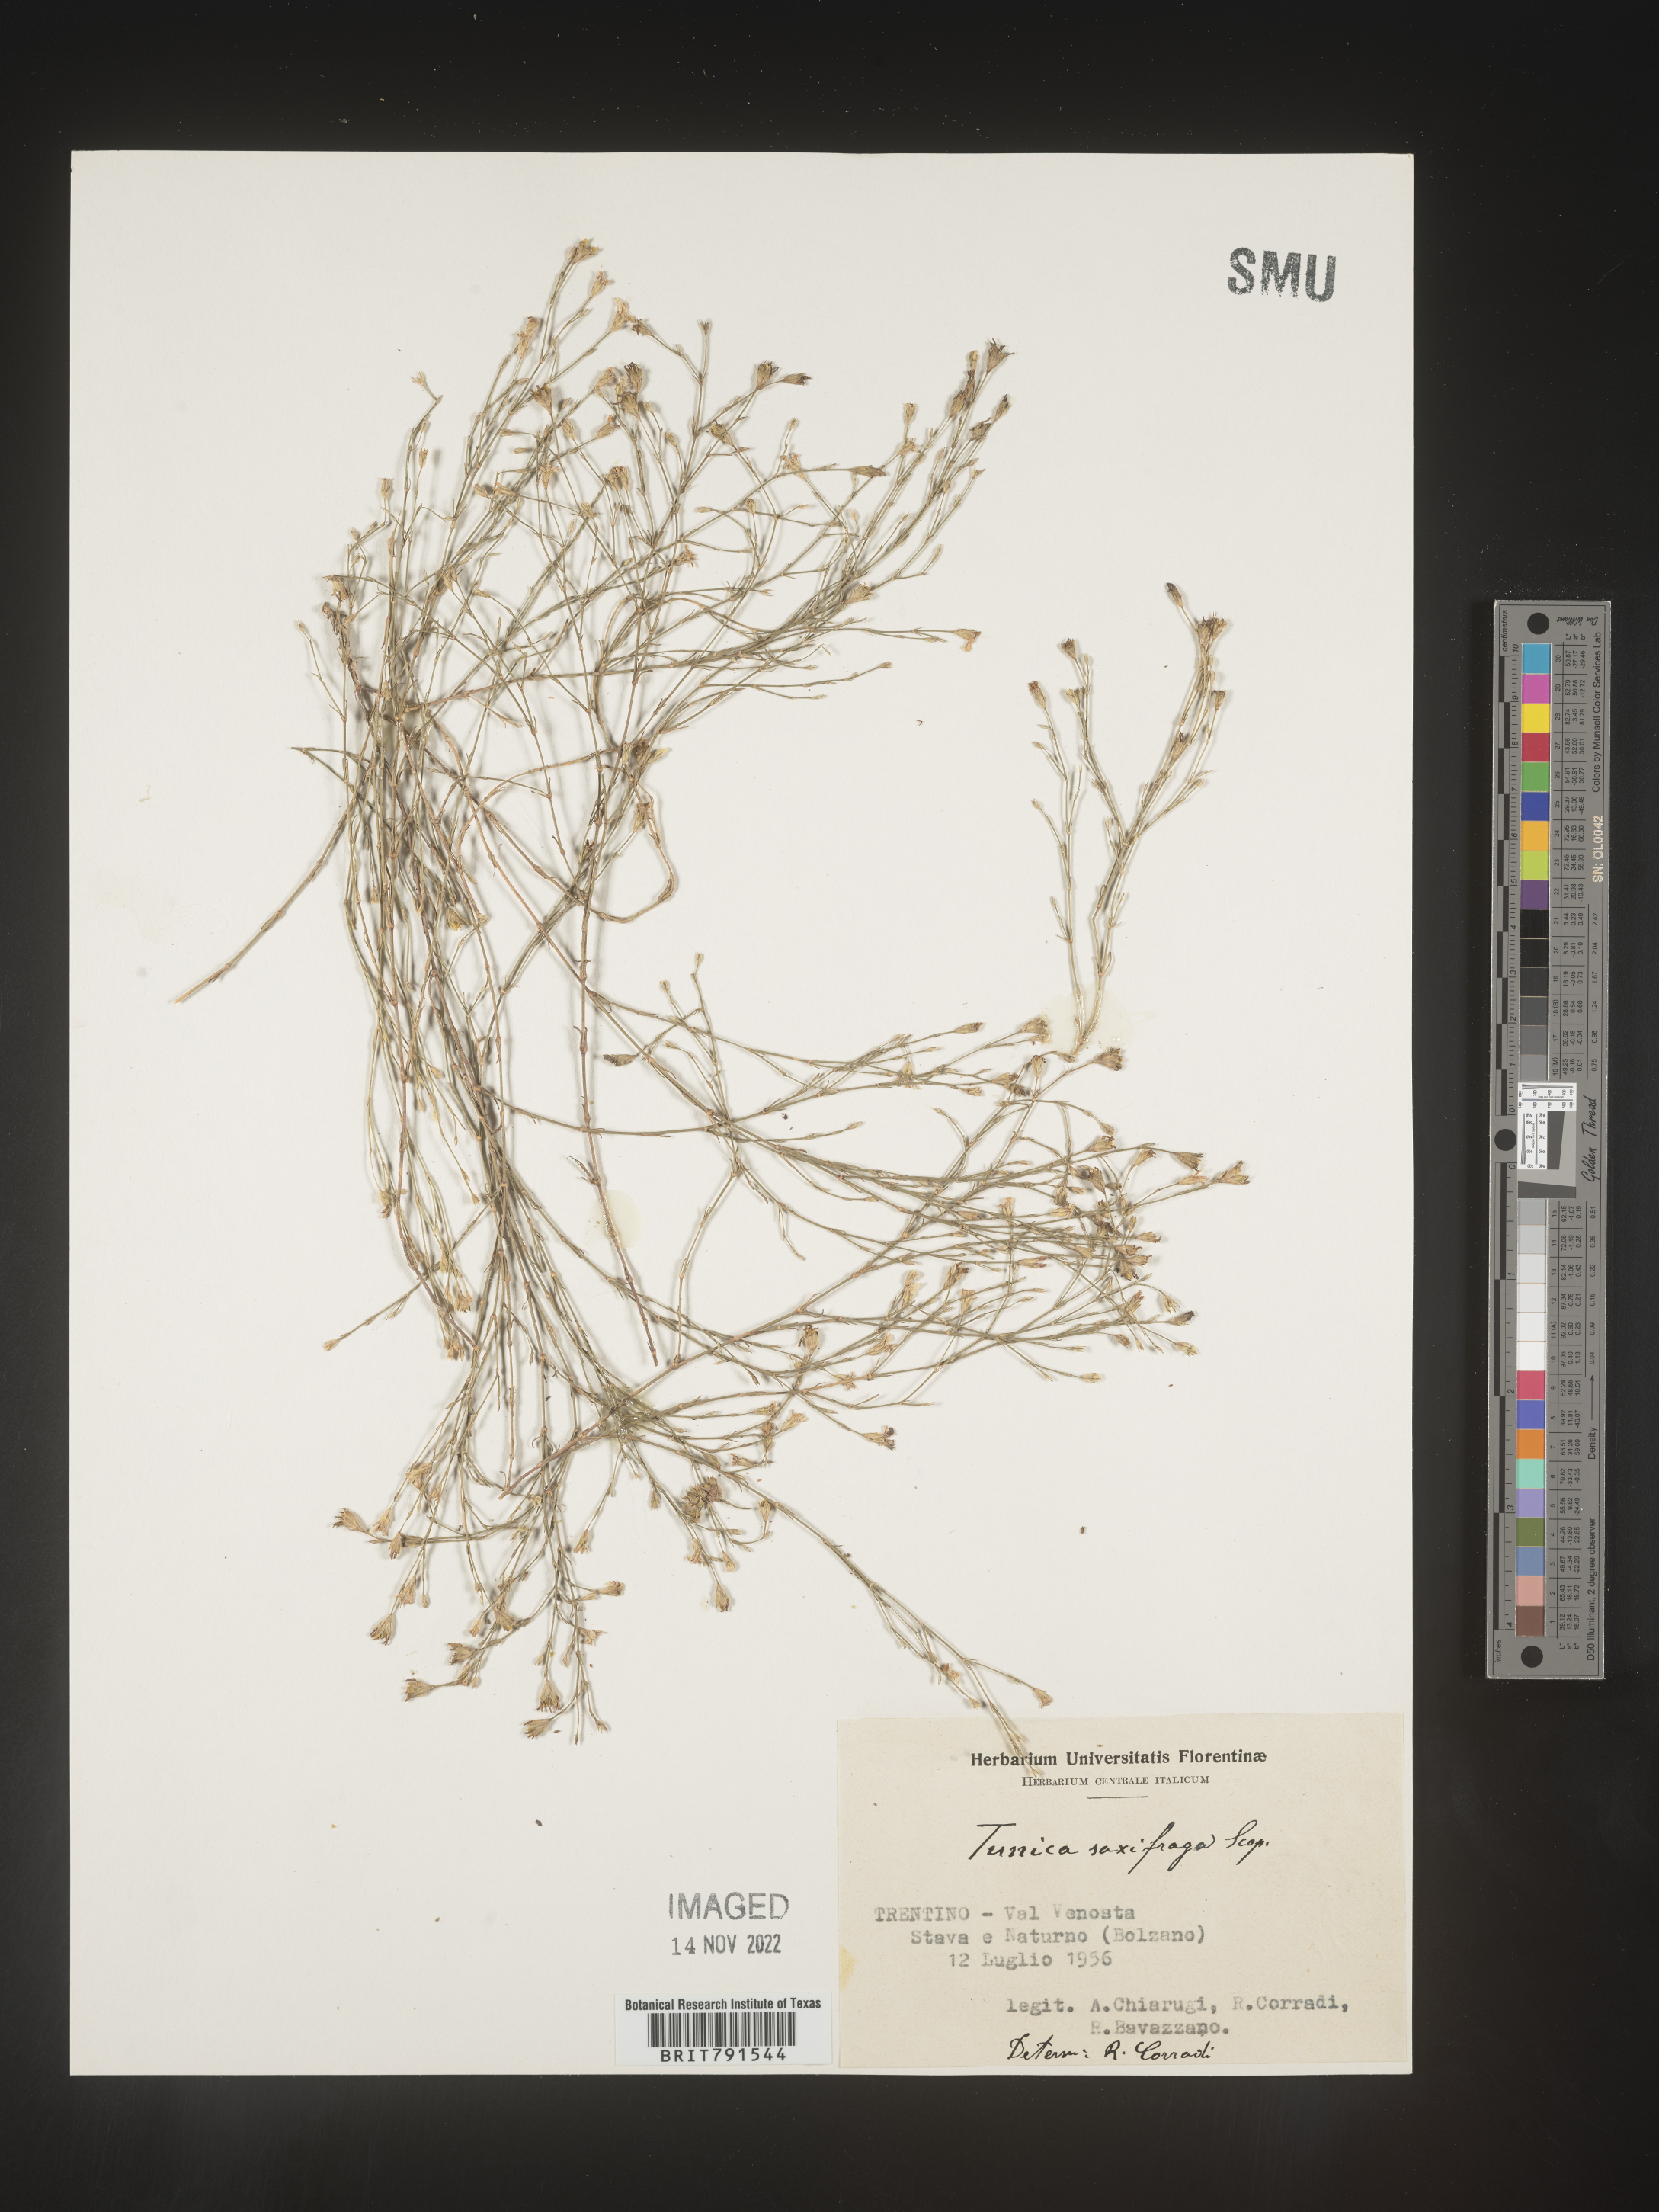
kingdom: Plantae
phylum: Tracheophyta
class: Magnoliopsida
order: Caryophyllales
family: Caryophyllaceae
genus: Petrorhagia
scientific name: Petrorhagia
